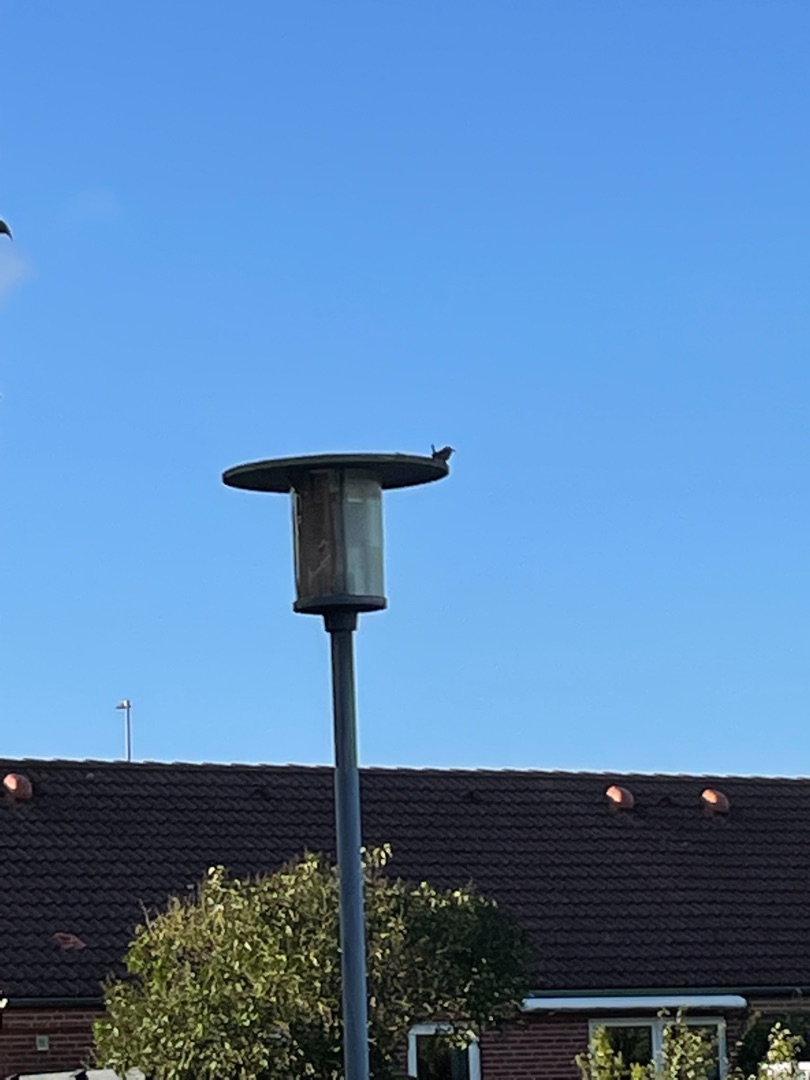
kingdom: Animalia
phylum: Chordata
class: Aves
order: Passeriformes
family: Troglodytidae
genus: Troglodytes
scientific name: Troglodytes troglodytes
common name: Gærdesmutte
